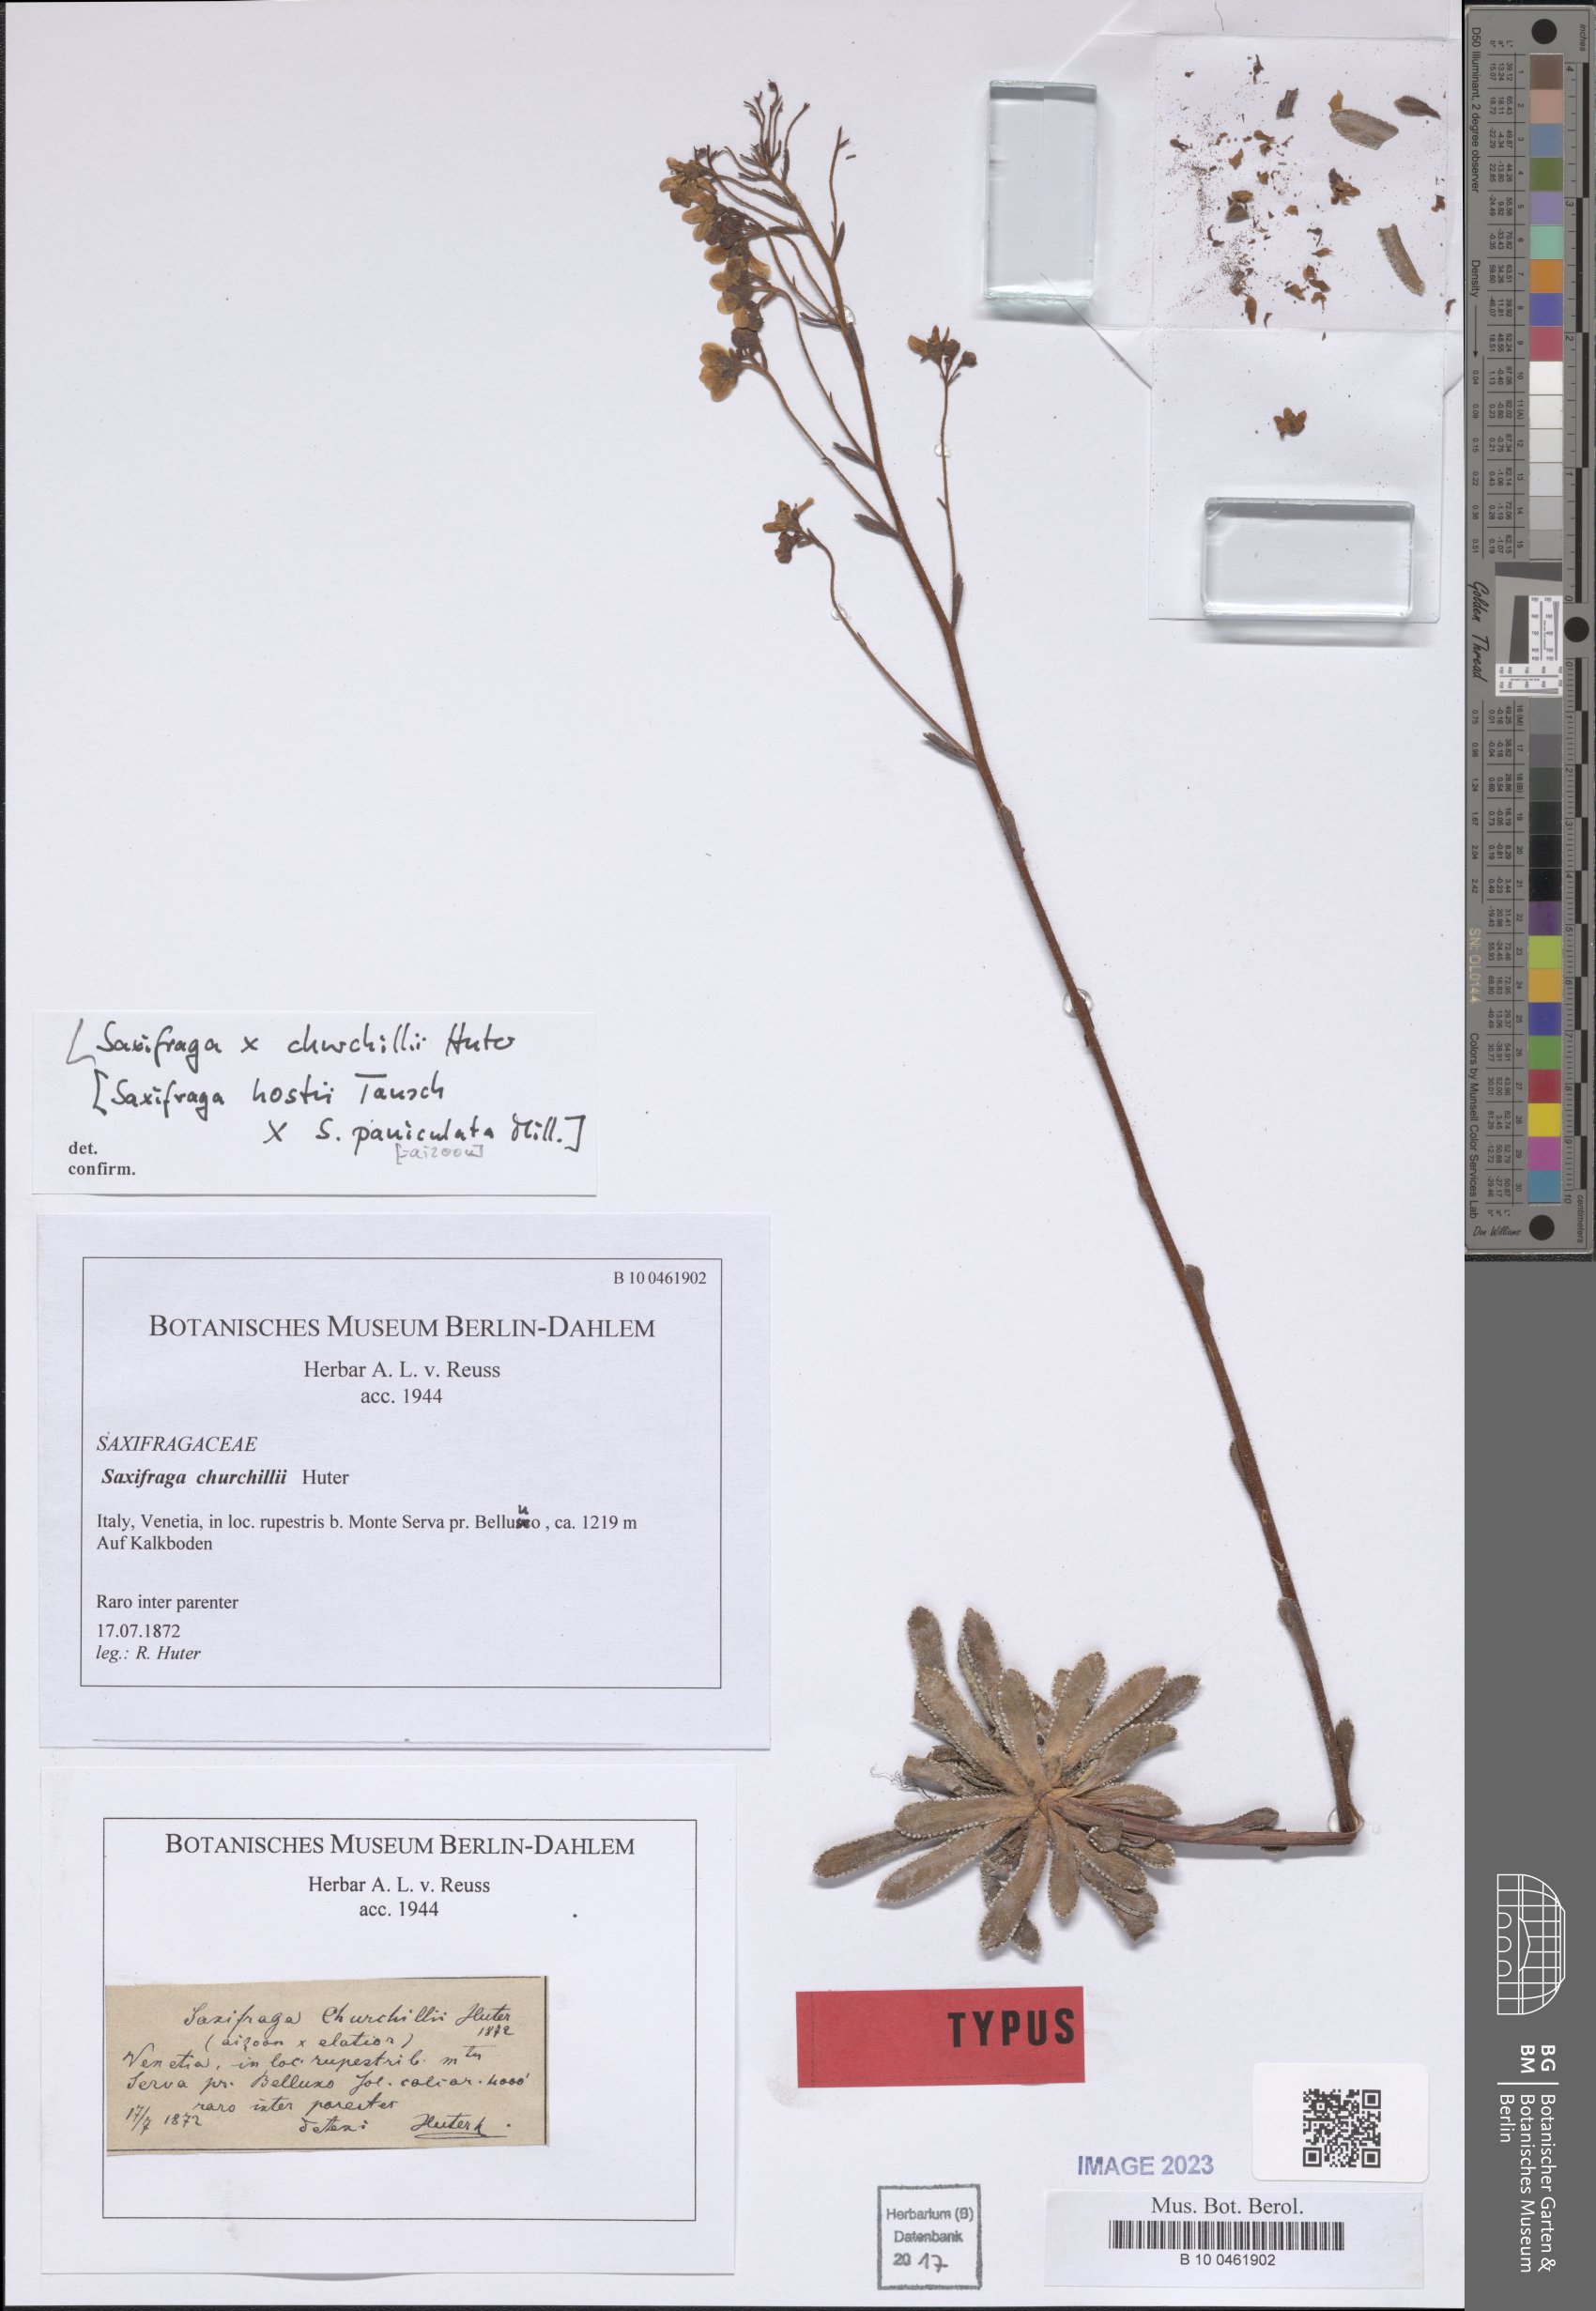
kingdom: Plantae
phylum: Tracheophyta
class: Magnoliopsida
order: Saxifragales
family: Saxifragaceae
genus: Saxifraga
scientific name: Saxifraga churchilli
